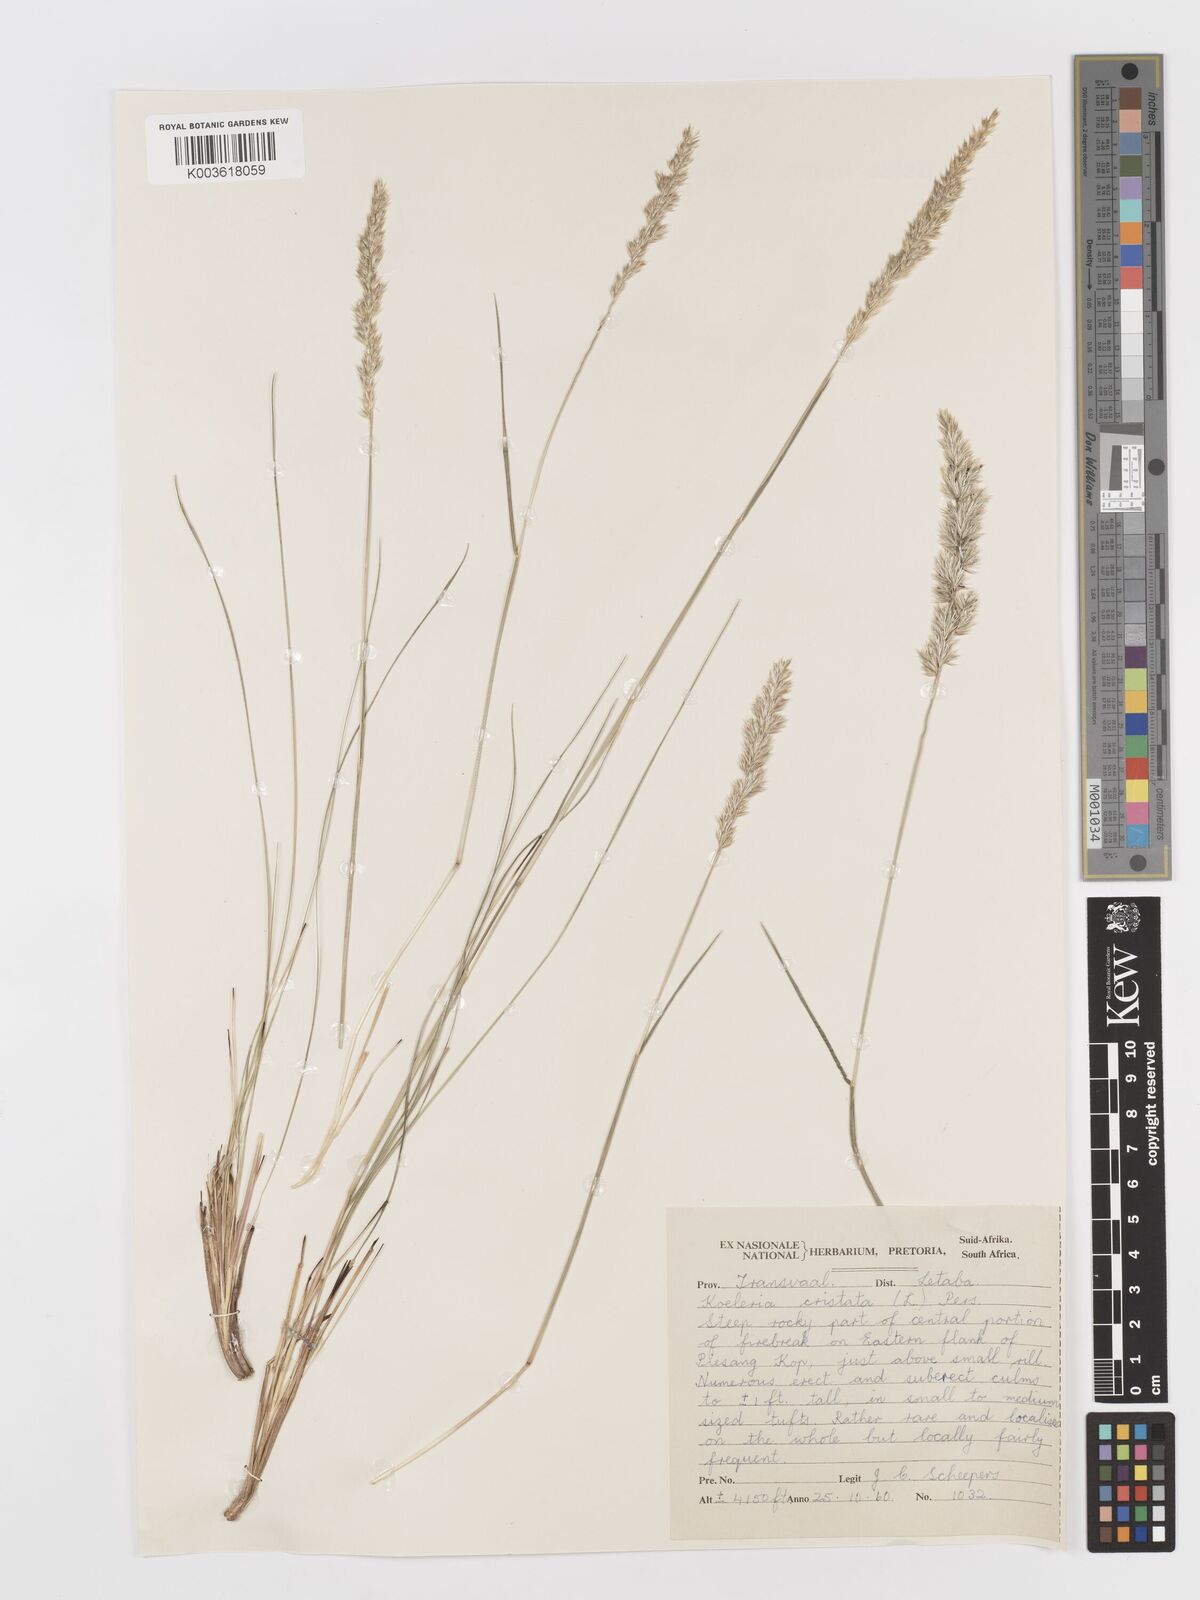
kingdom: Plantae
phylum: Tracheophyta
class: Liliopsida
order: Poales
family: Poaceae
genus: Koeleria
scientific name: Koeleria capensis
